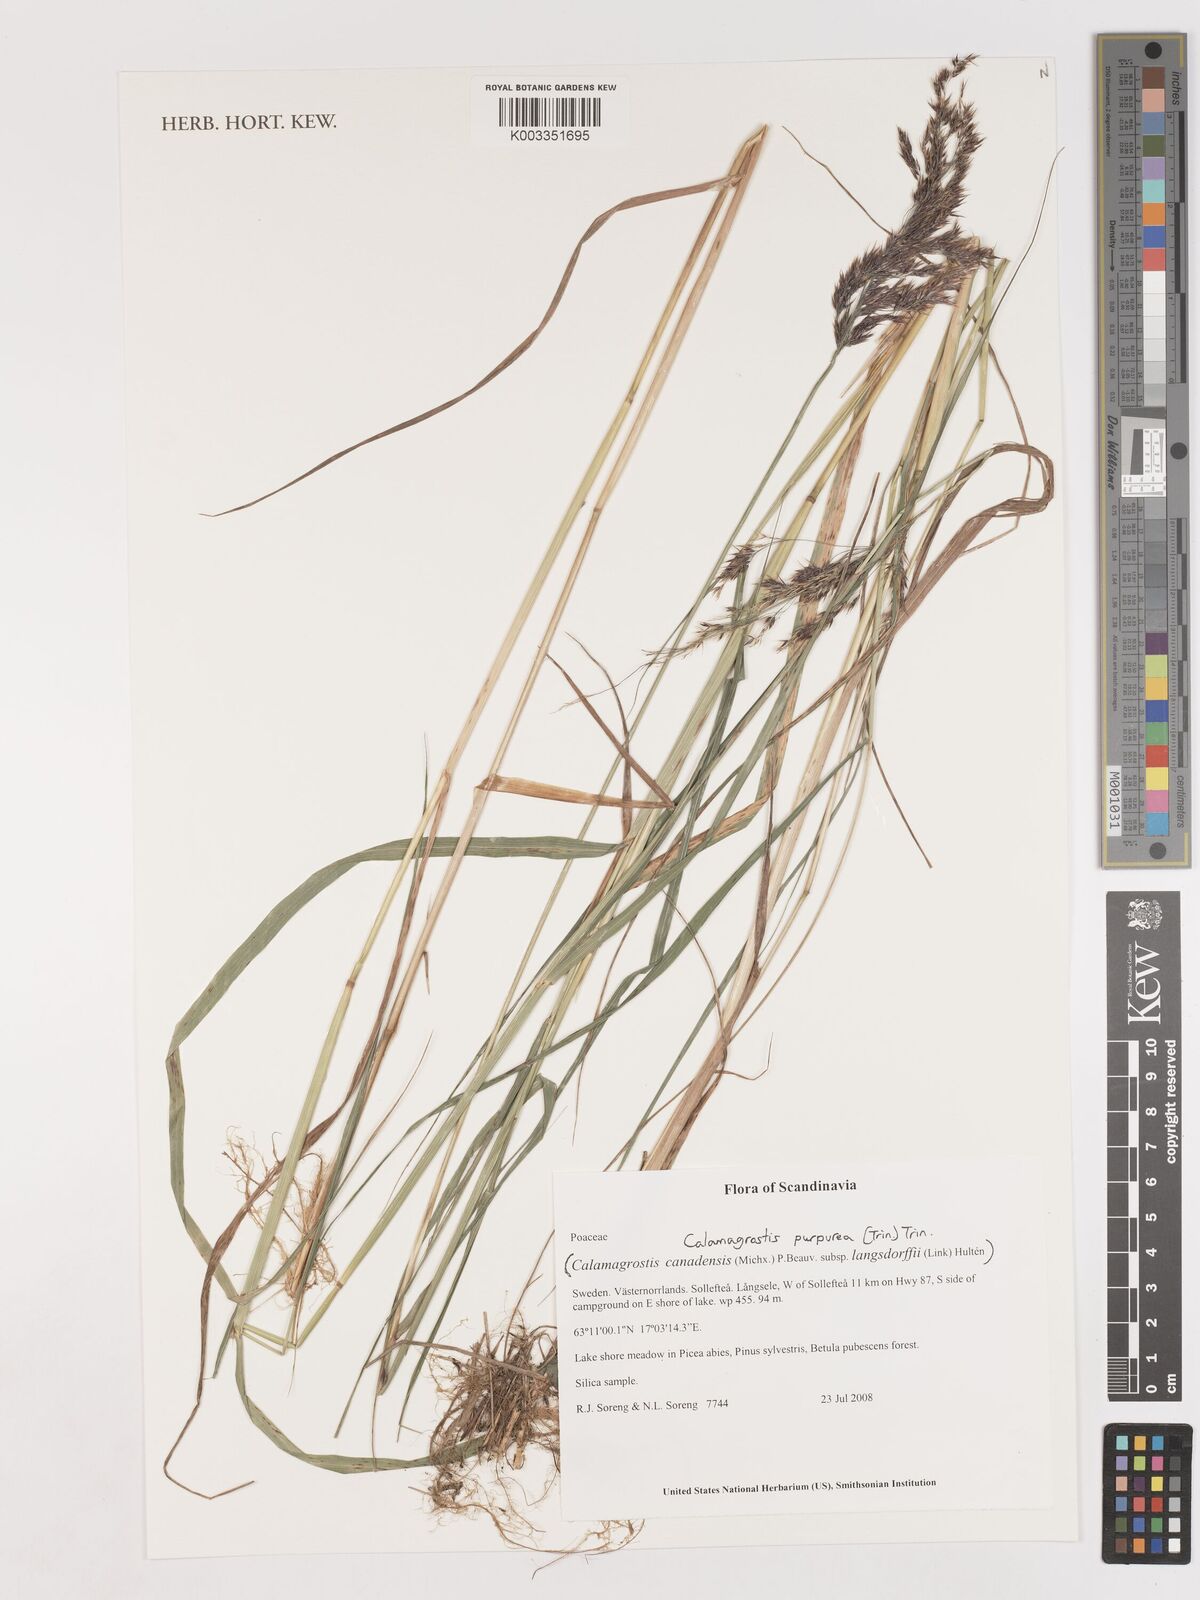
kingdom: Plantae
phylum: Tracheophyta
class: Liliopsida
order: Poales
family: Poaceae
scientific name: Poaceae
